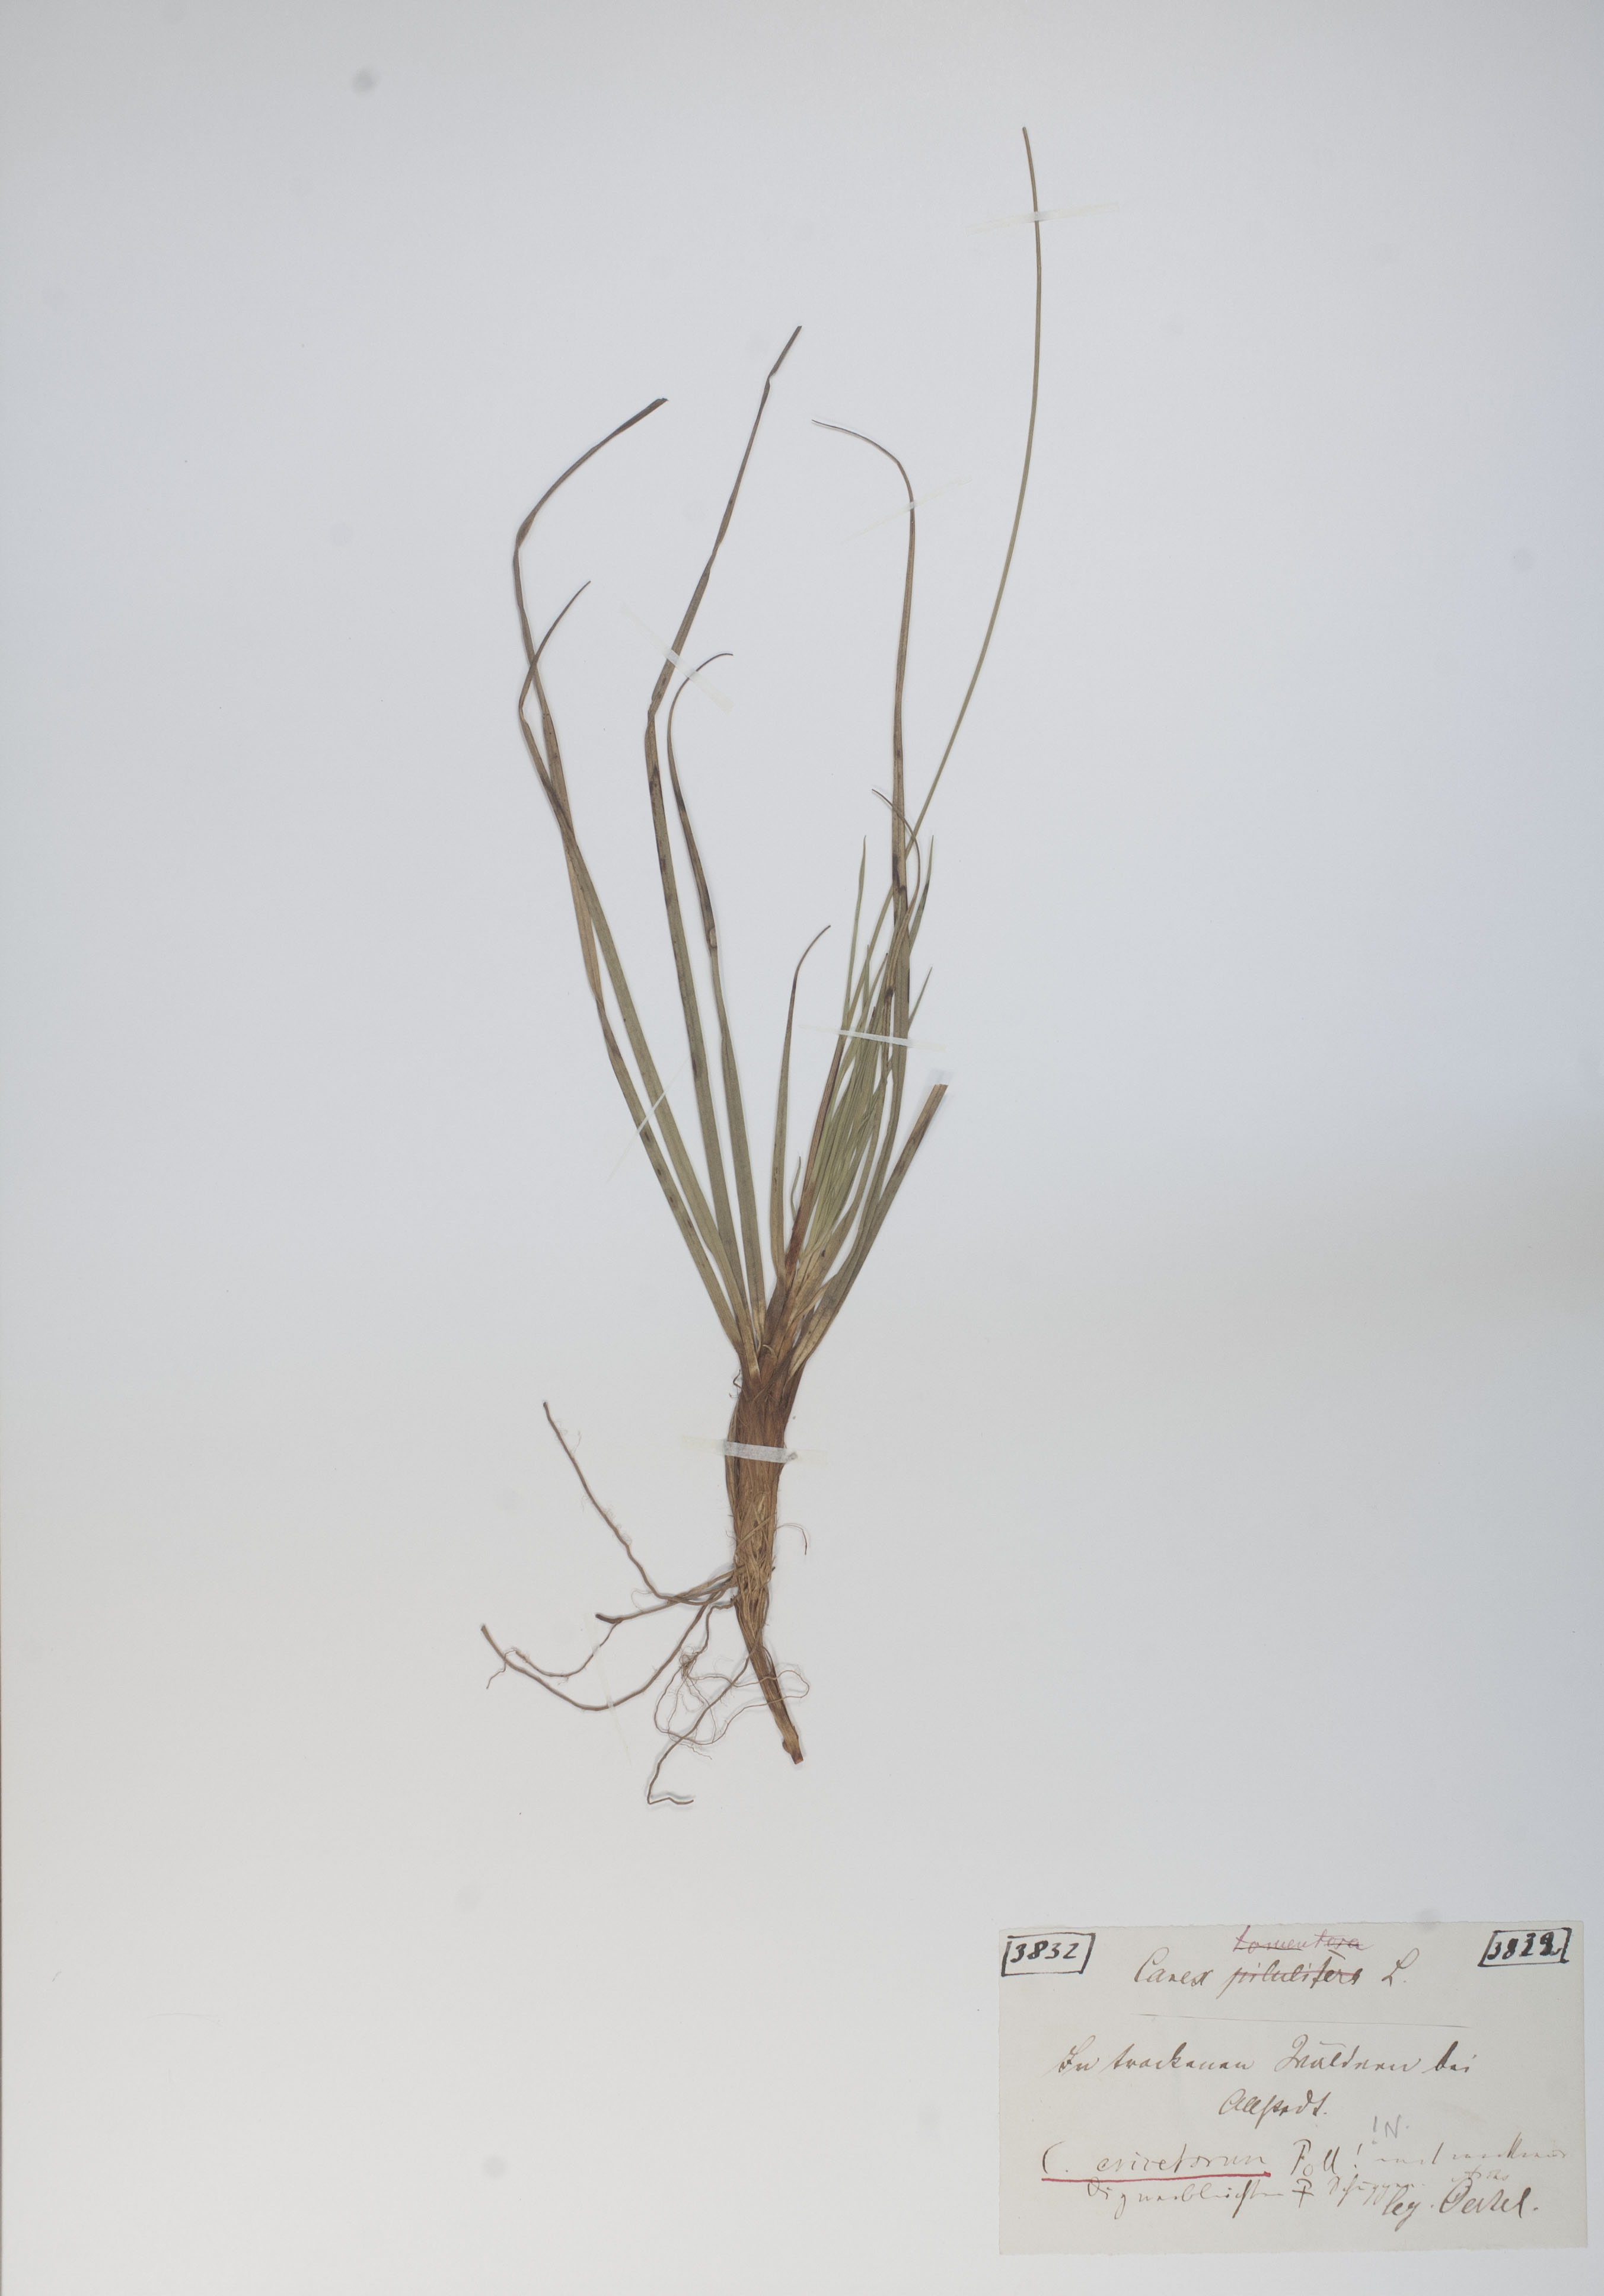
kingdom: Plantae
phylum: Tracheophyta
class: Liliopsida
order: Poales
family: Cyperaceae
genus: Carex
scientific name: Carex ericetorum
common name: Rare spring-sedge
